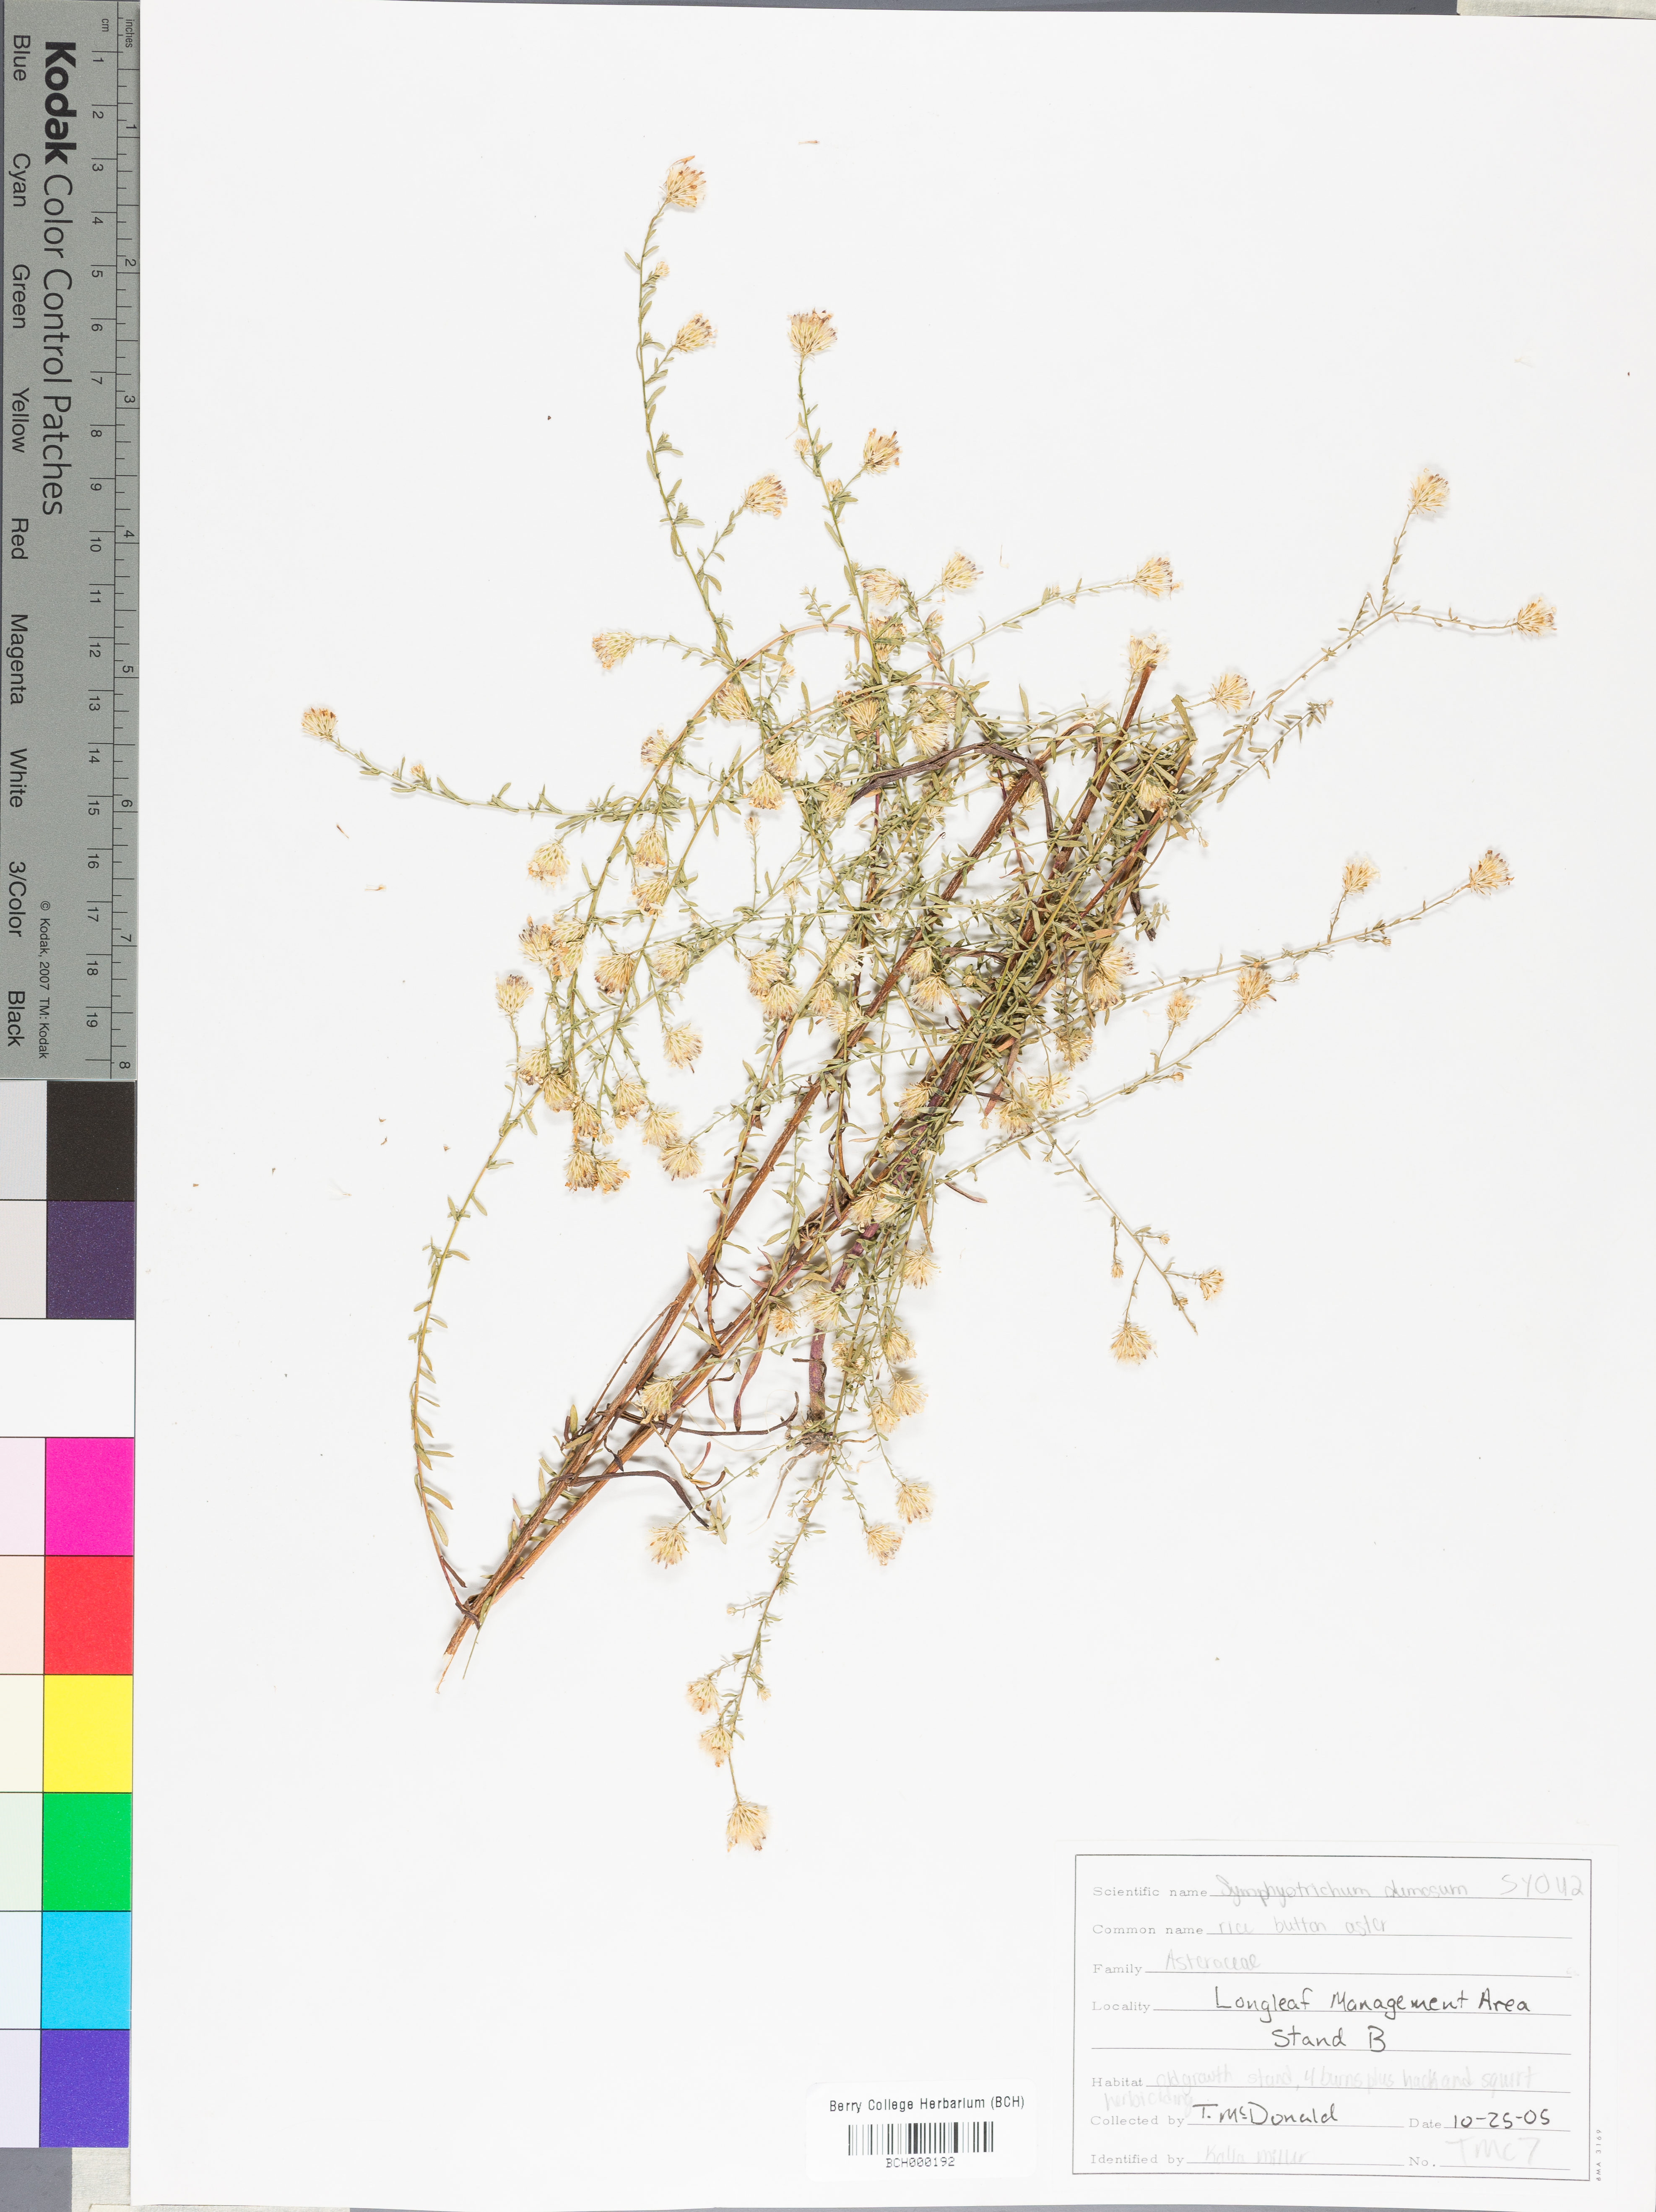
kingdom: Plantae
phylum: Tracheophyta
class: Magnoliopsida
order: Asterales
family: Asteraceae
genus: Symphyotrichum
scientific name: Symphyotrichum dumosum
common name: Bushy aster
